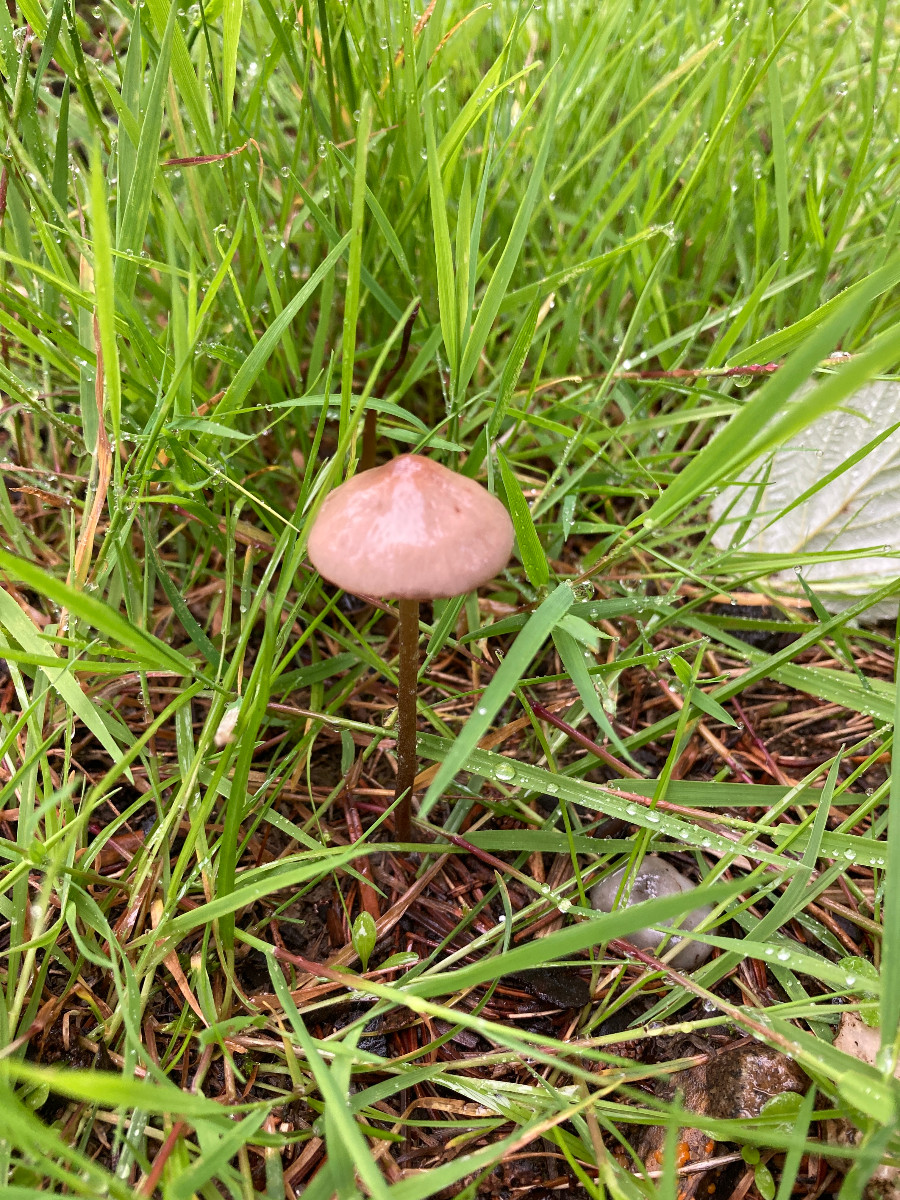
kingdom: Fungi
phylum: Basidiomycota
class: Agaricomycetes
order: Agaricales
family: Bolbitiaceae
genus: Panaeolina
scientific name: Panaeolina foenisecii
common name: høslætsvamp
